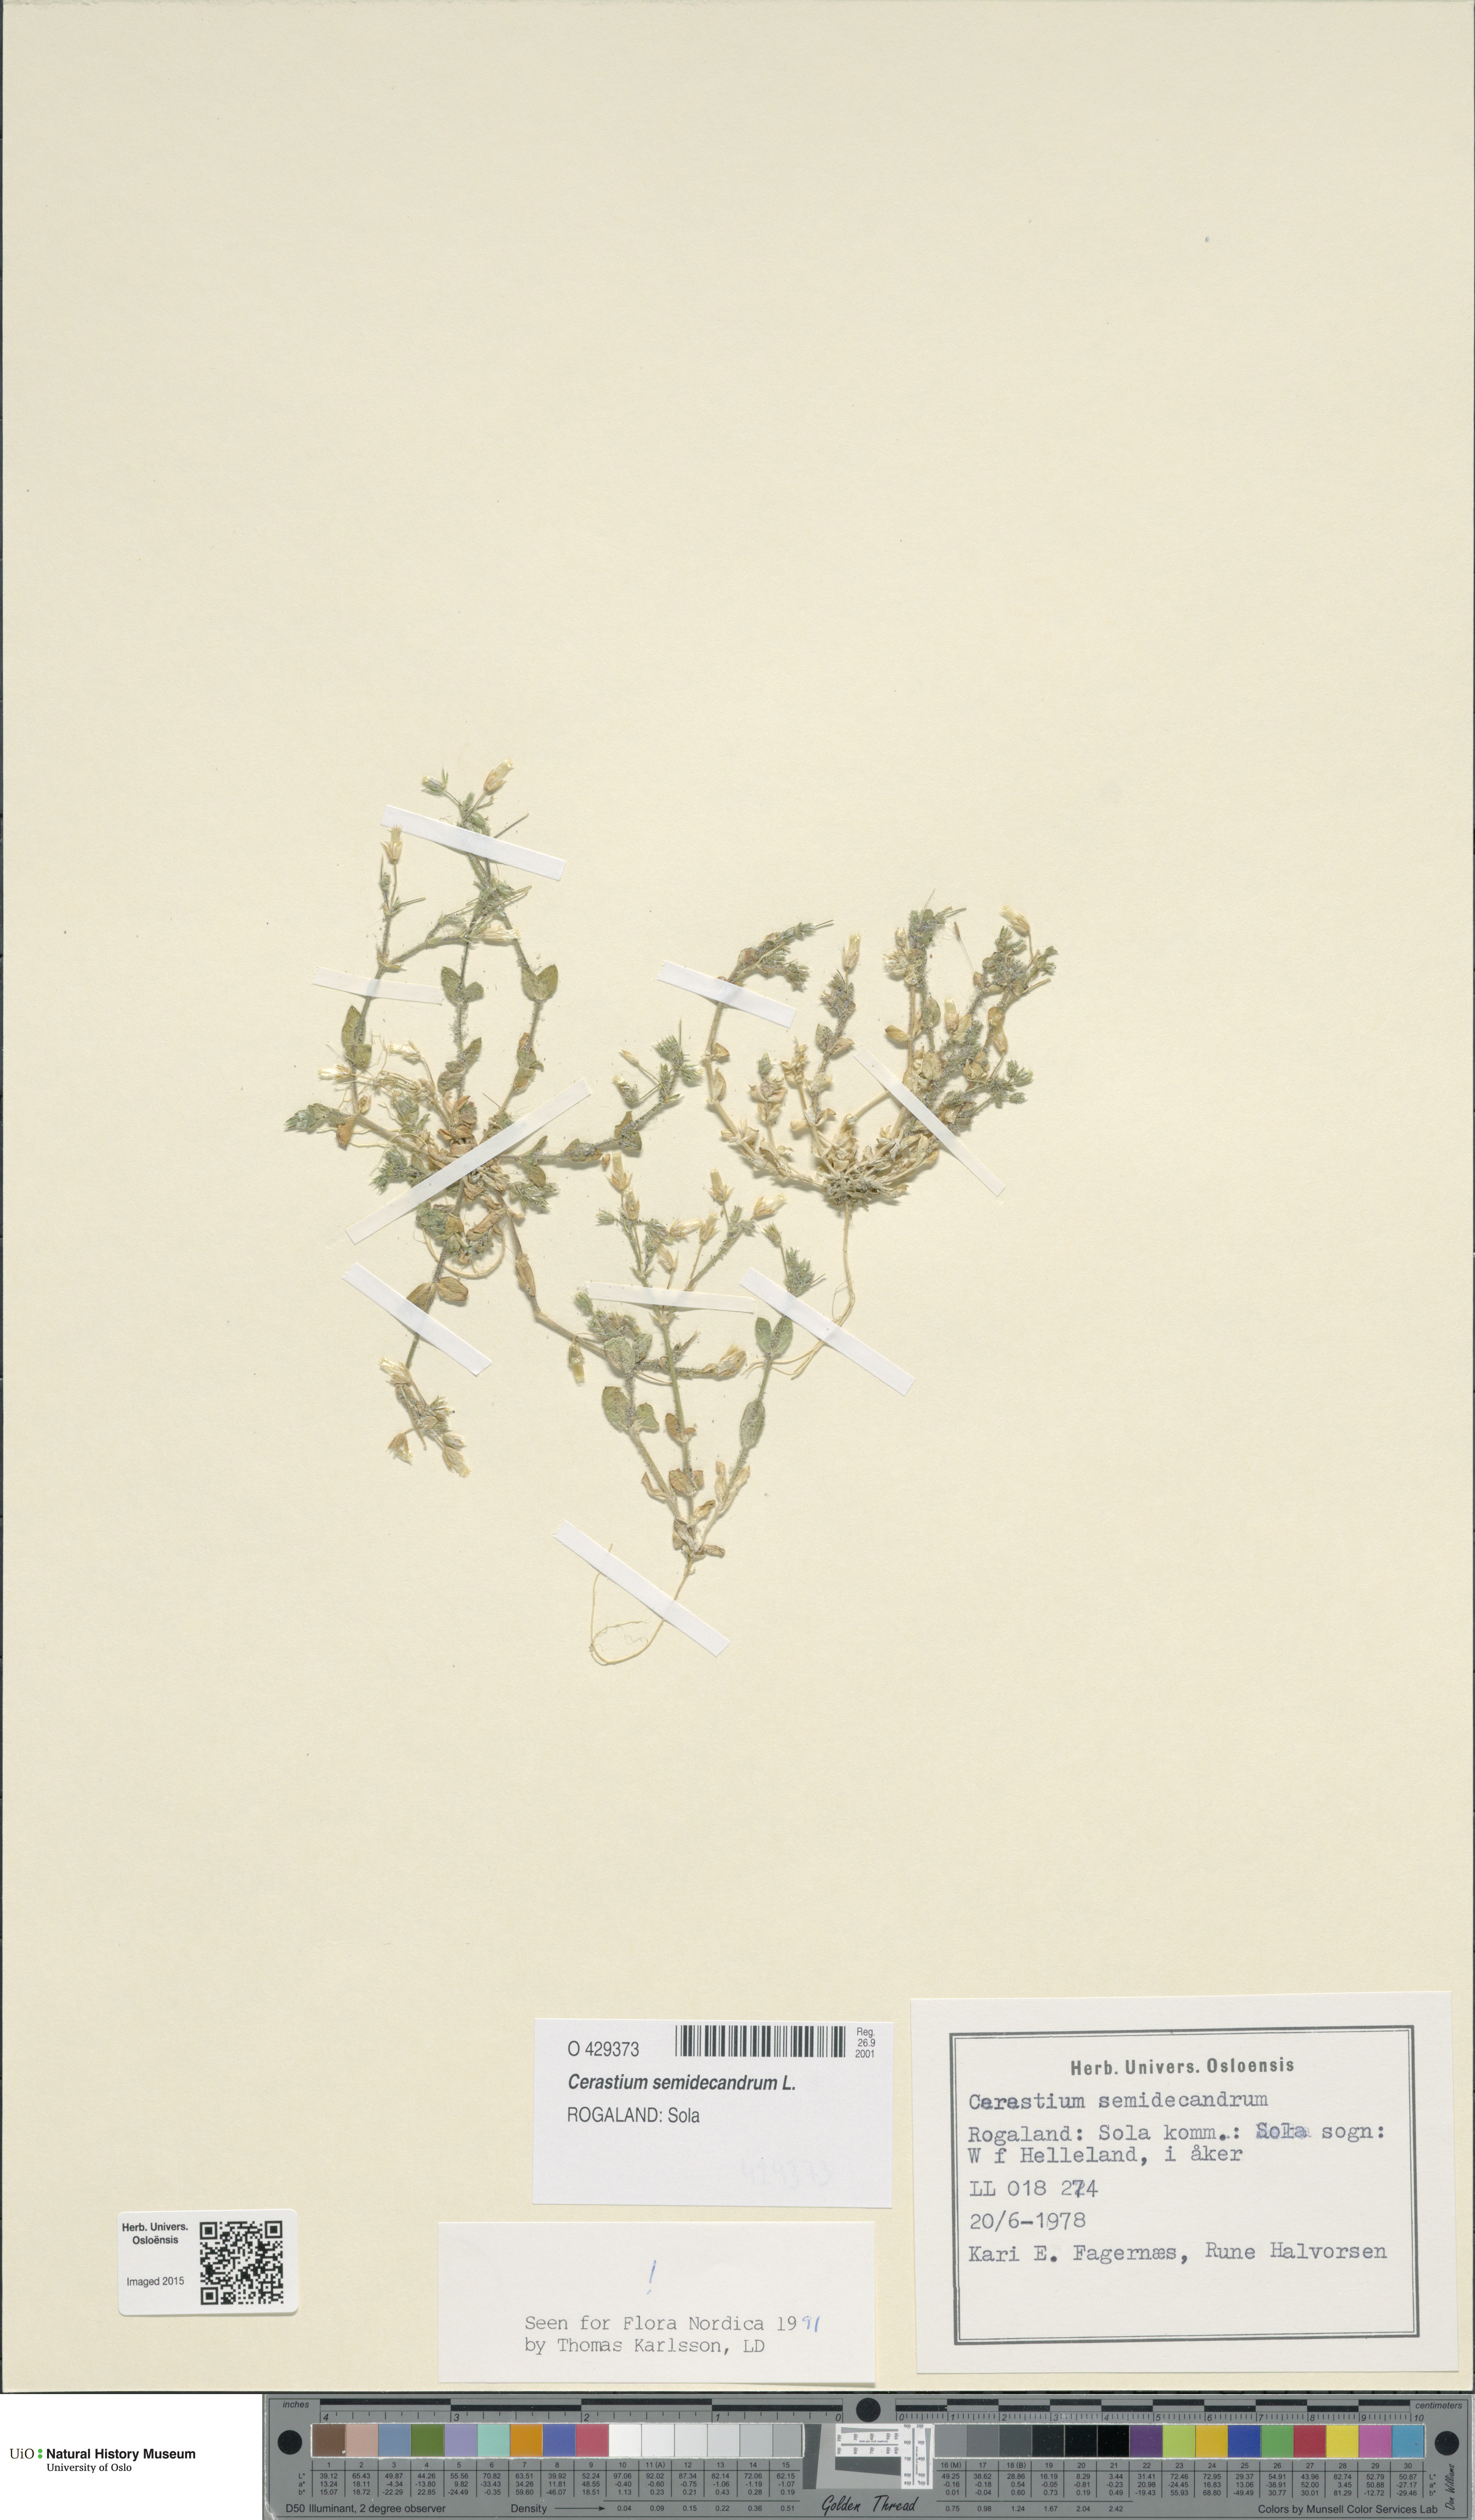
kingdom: Plantae
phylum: Tracheophyta
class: Magnoliopsida
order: Caryophyllales
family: Caryophyllaceae
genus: Cerastium
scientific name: Cerastium semidecandrum
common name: Little mouse-ear
